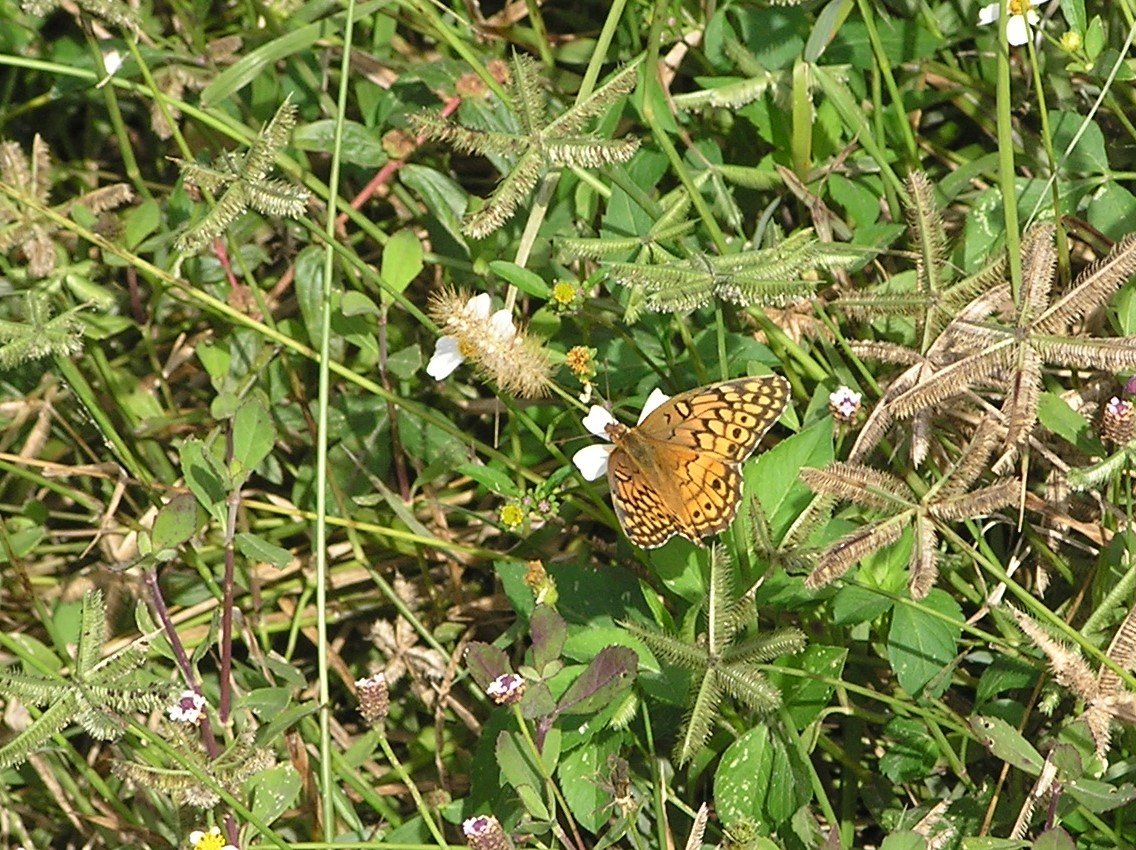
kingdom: Animalia
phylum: Arthropoda
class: Insecta
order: Lepidoptera
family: Nymphalidae
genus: Euptoieta
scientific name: Euptoieta claudia
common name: Variegated Fritillary
